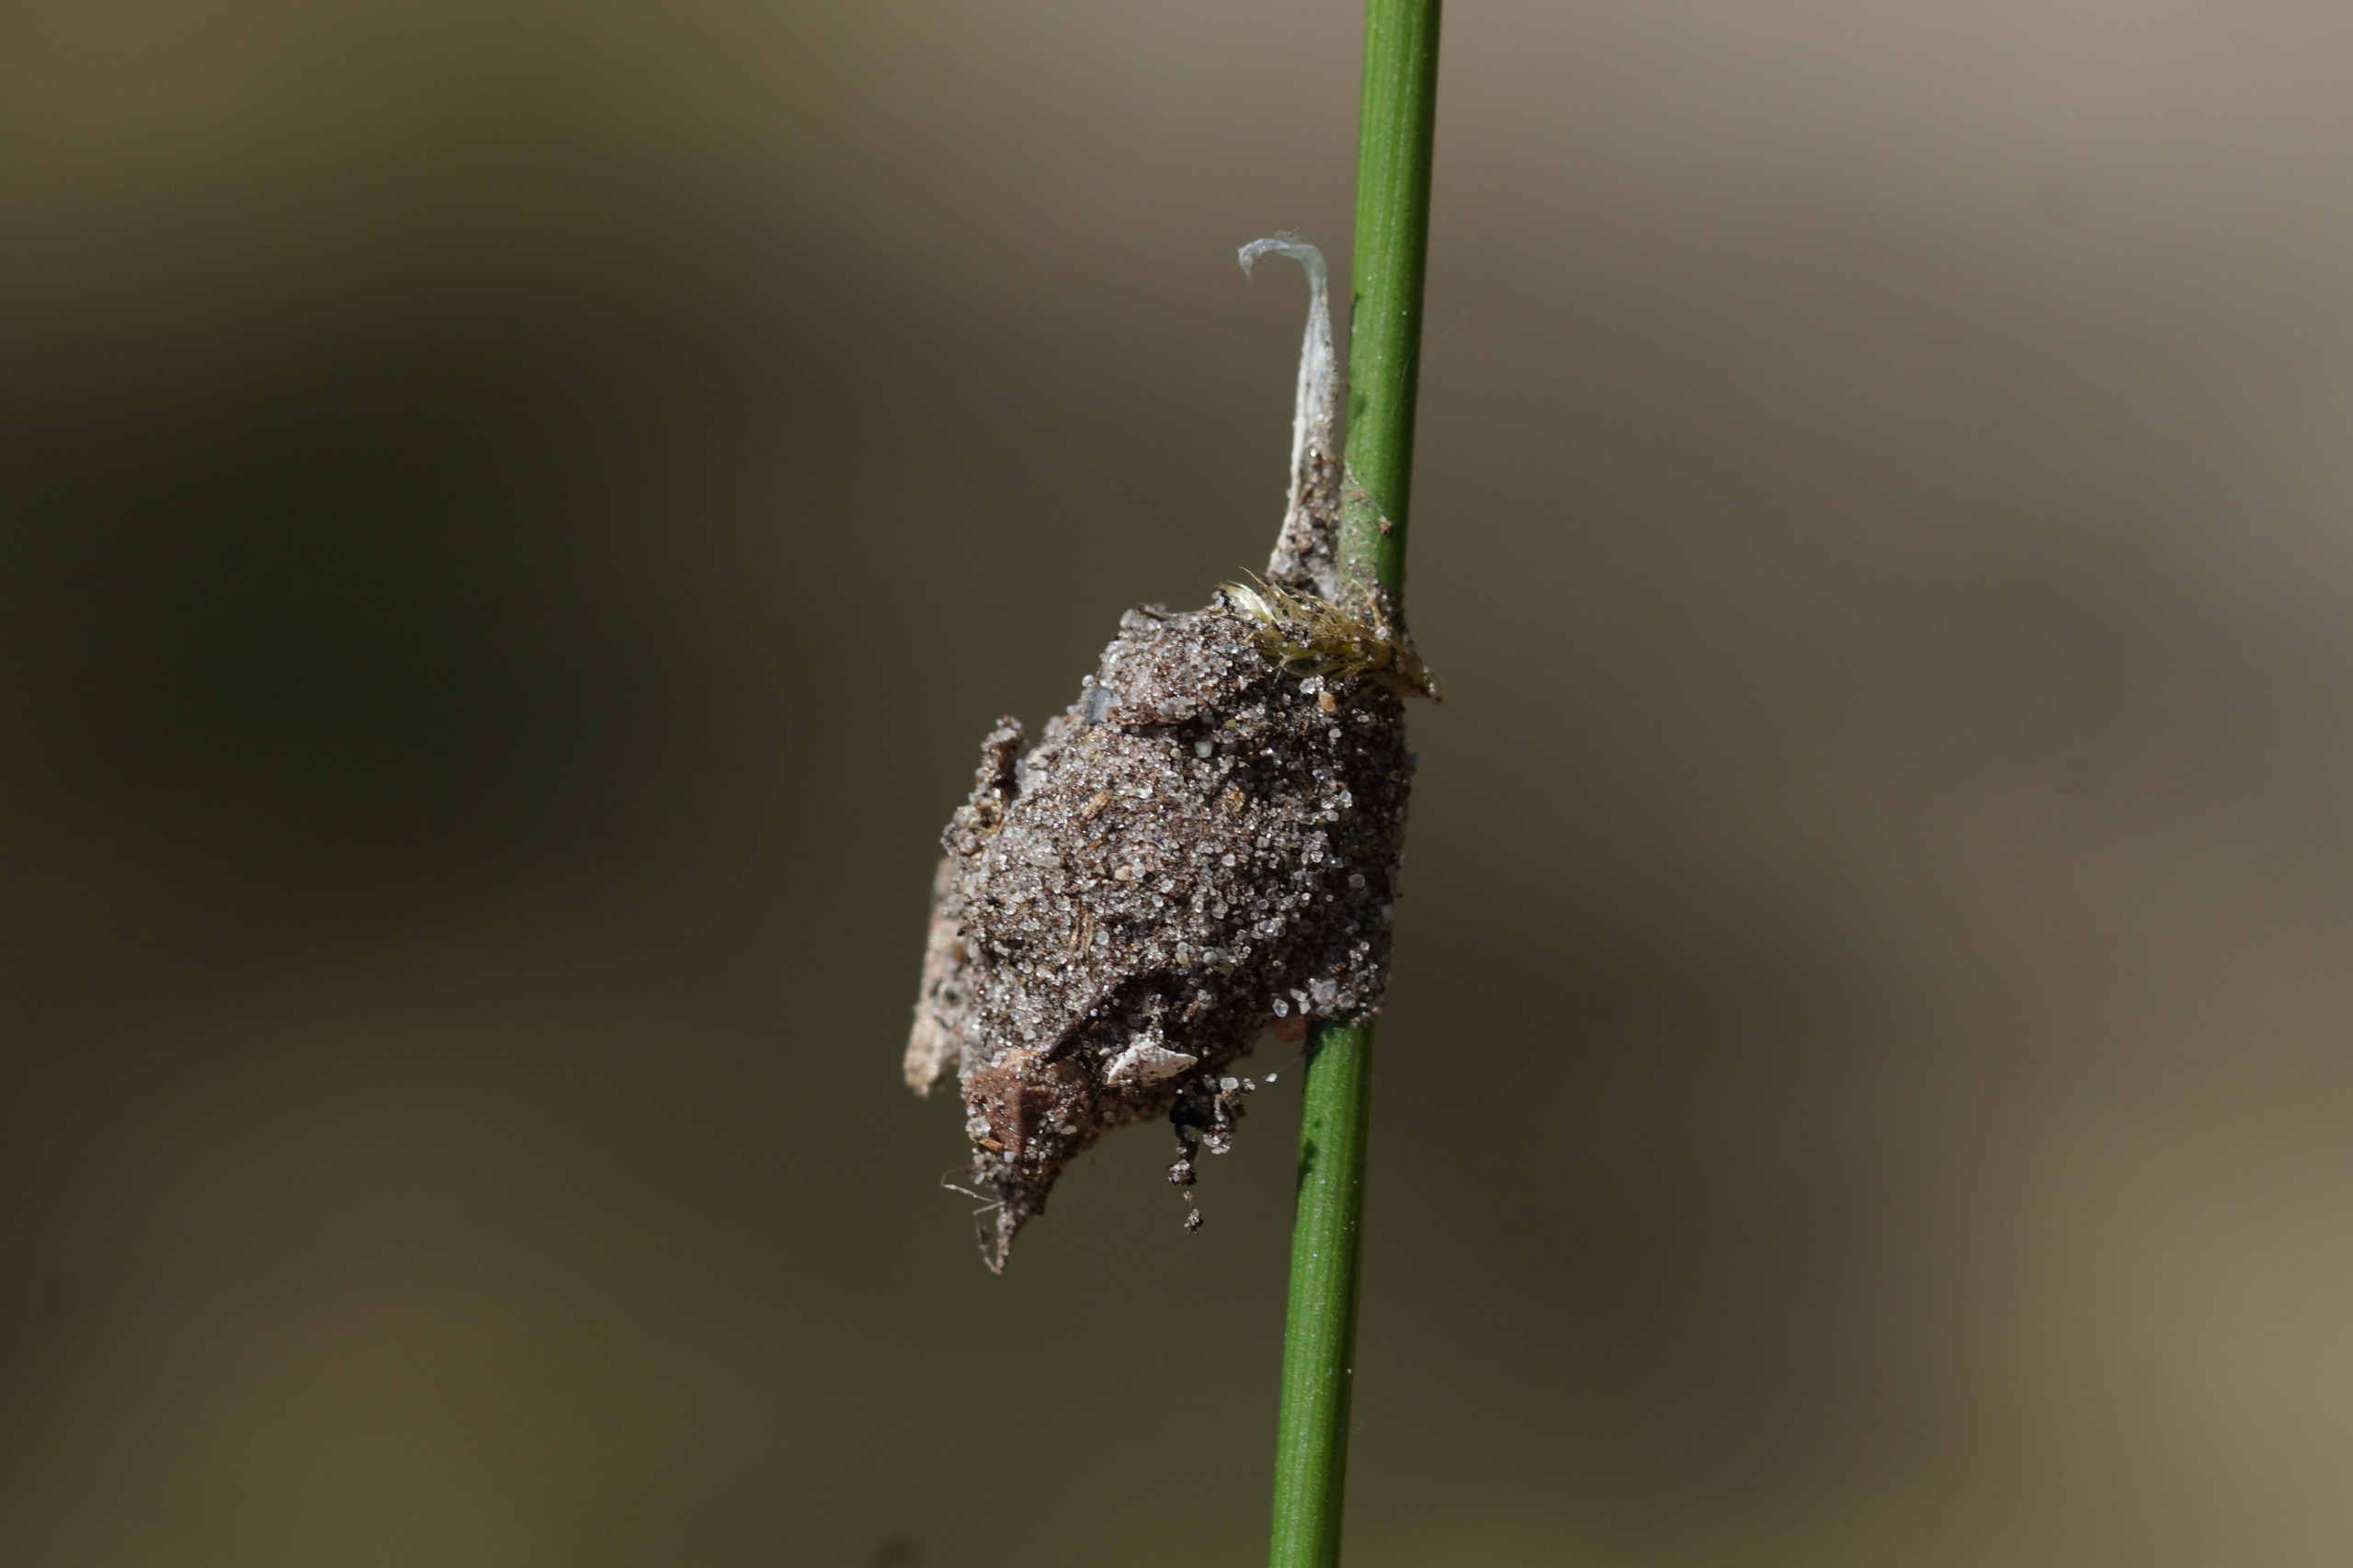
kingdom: Animalia
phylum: Arthropoda
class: Arachnida
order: Araneae
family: Liocranidae
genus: Agroeca
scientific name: Agroeca brunnea
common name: Felampespinder
